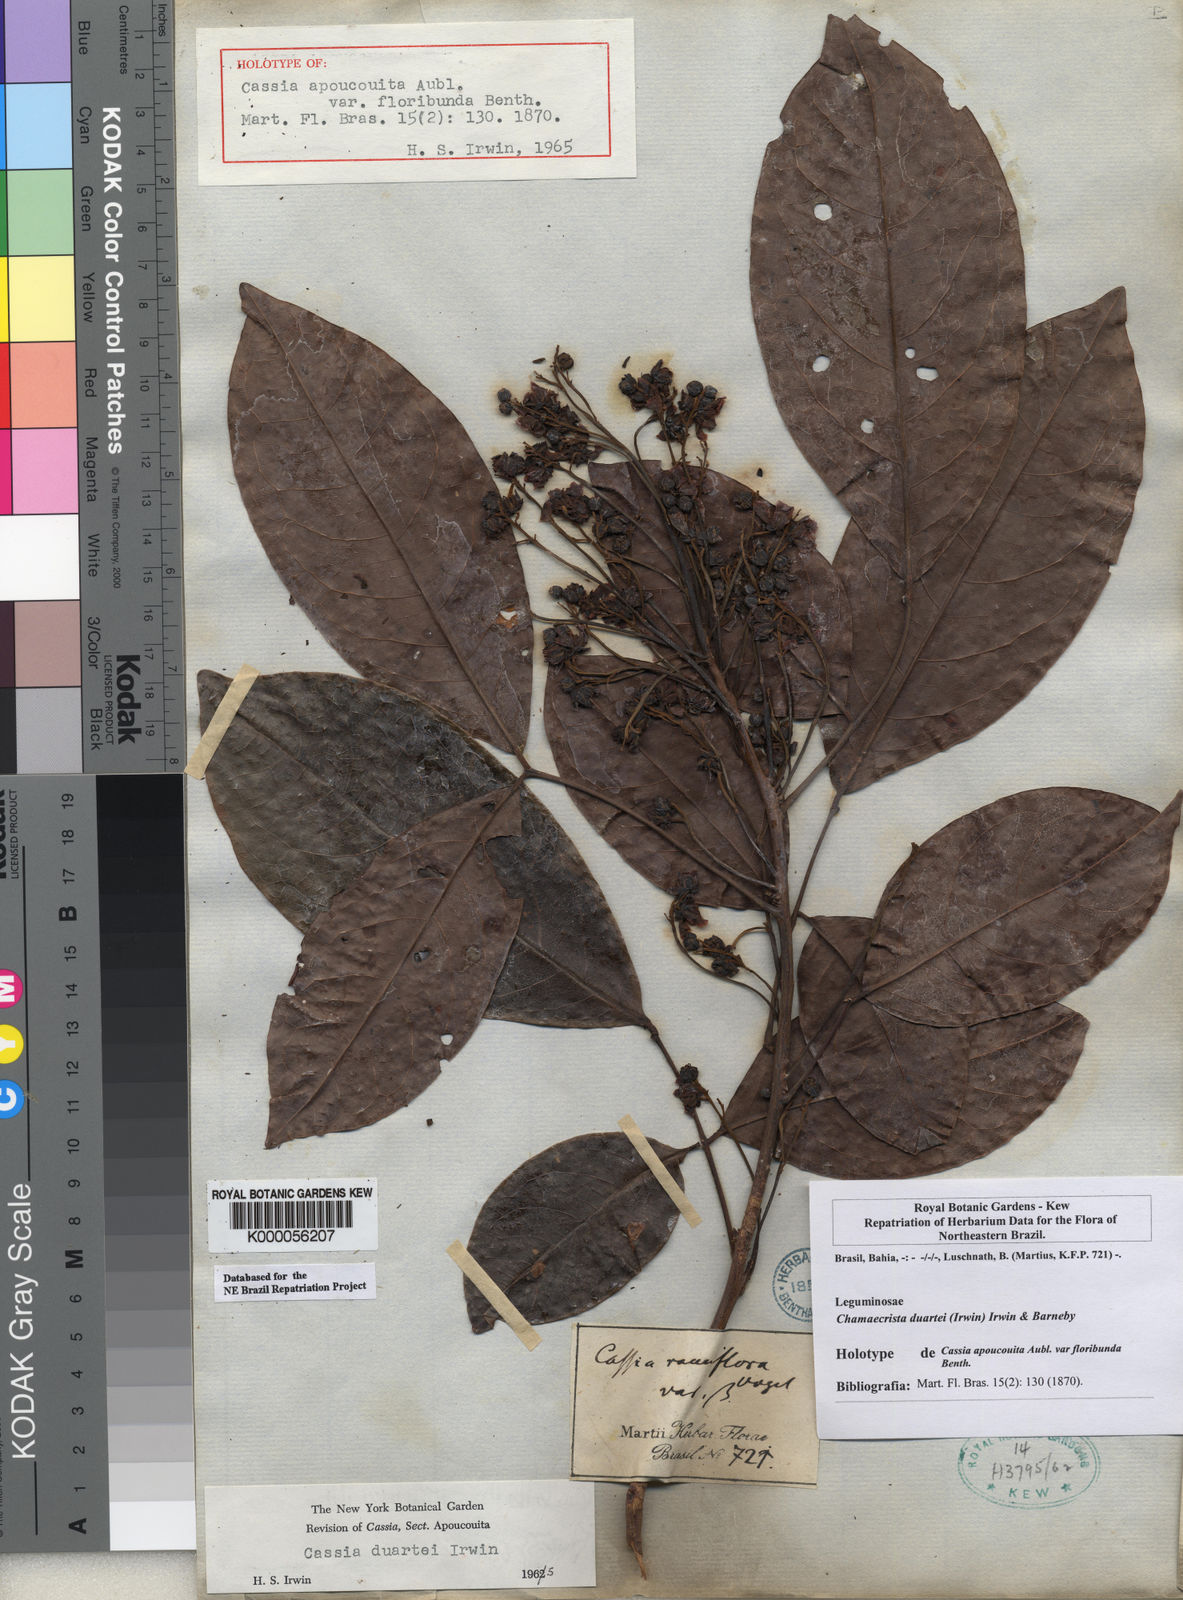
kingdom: Plantae
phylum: Tracheophyta
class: Magnoliopsida
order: Fabales
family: Fabaceae
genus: Chamaecrista
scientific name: Chamaecrista duartei
